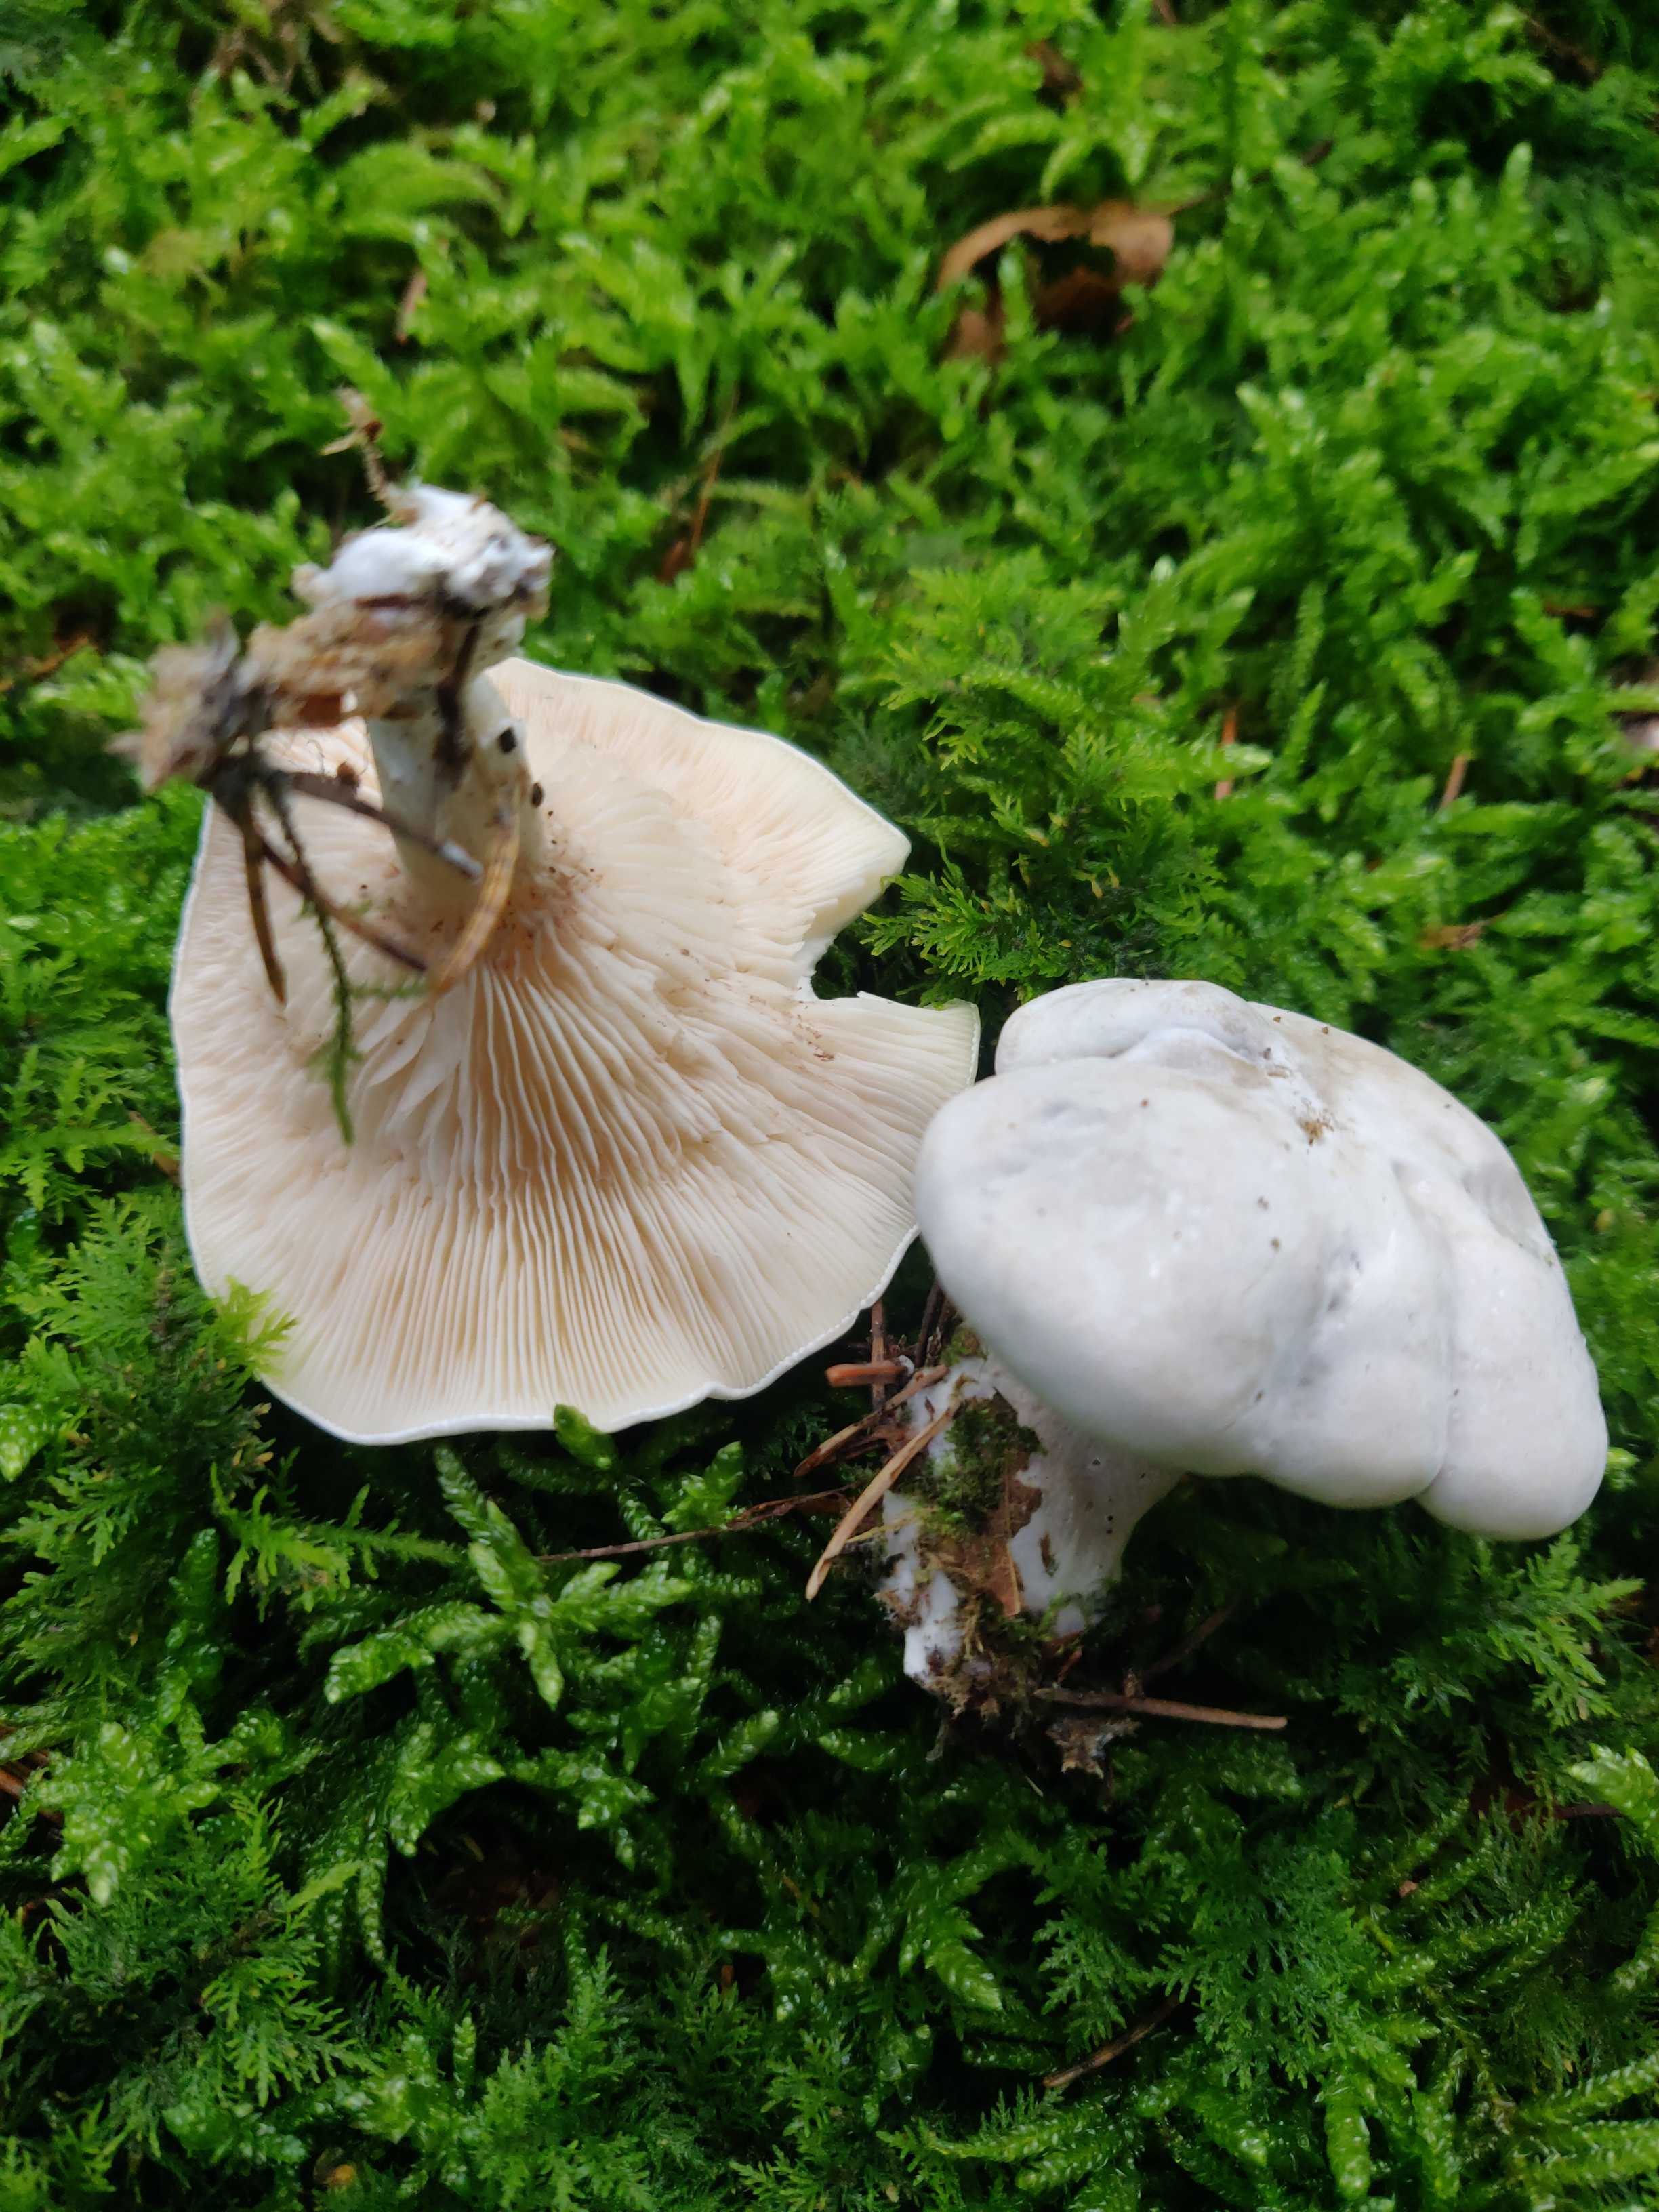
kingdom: Fungi
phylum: Basidiomycota
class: Agaricomycetes
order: Agaricales
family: Entolomataceae
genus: Clitopilus
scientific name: Clitopilus prunulus
